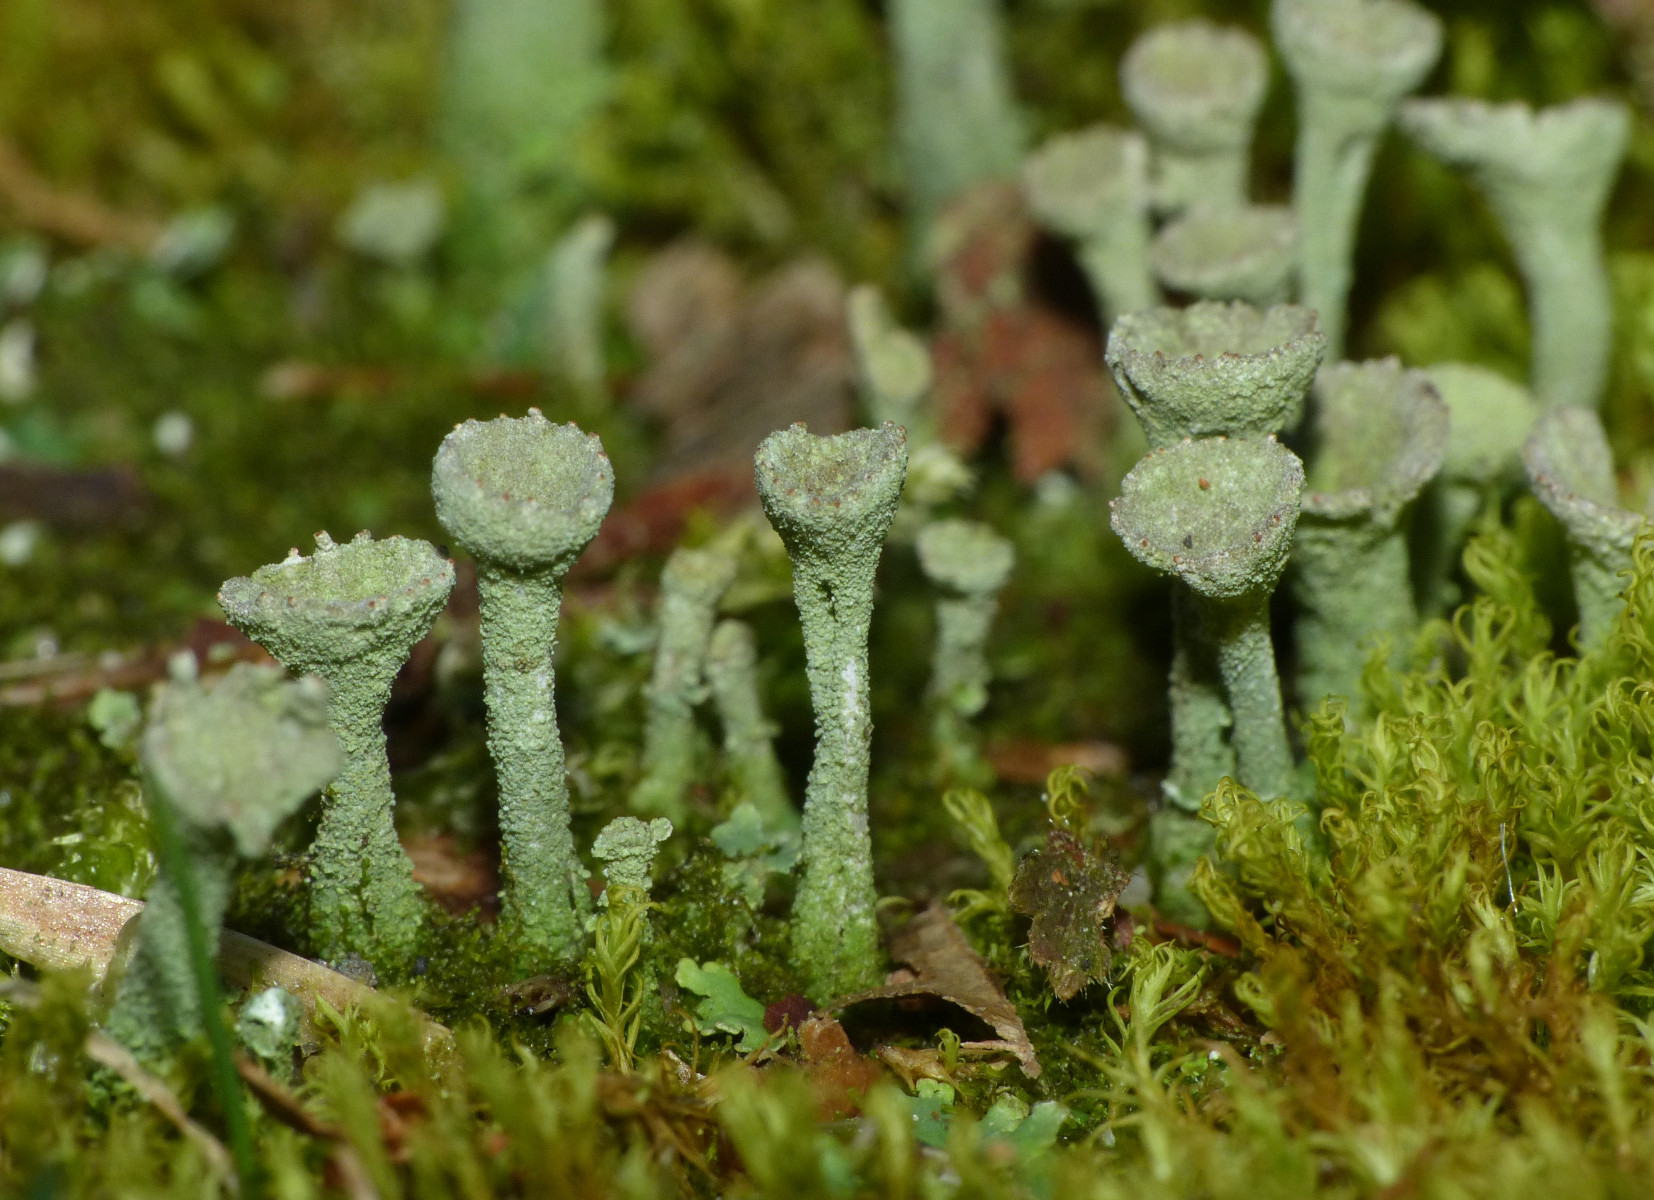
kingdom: Fungi
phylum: Ascomycota
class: Lecanoromycetes
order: Lecanorales
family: Cladoniaceae
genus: Cladonia
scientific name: Cladonia
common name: brungrøn bægerlav
